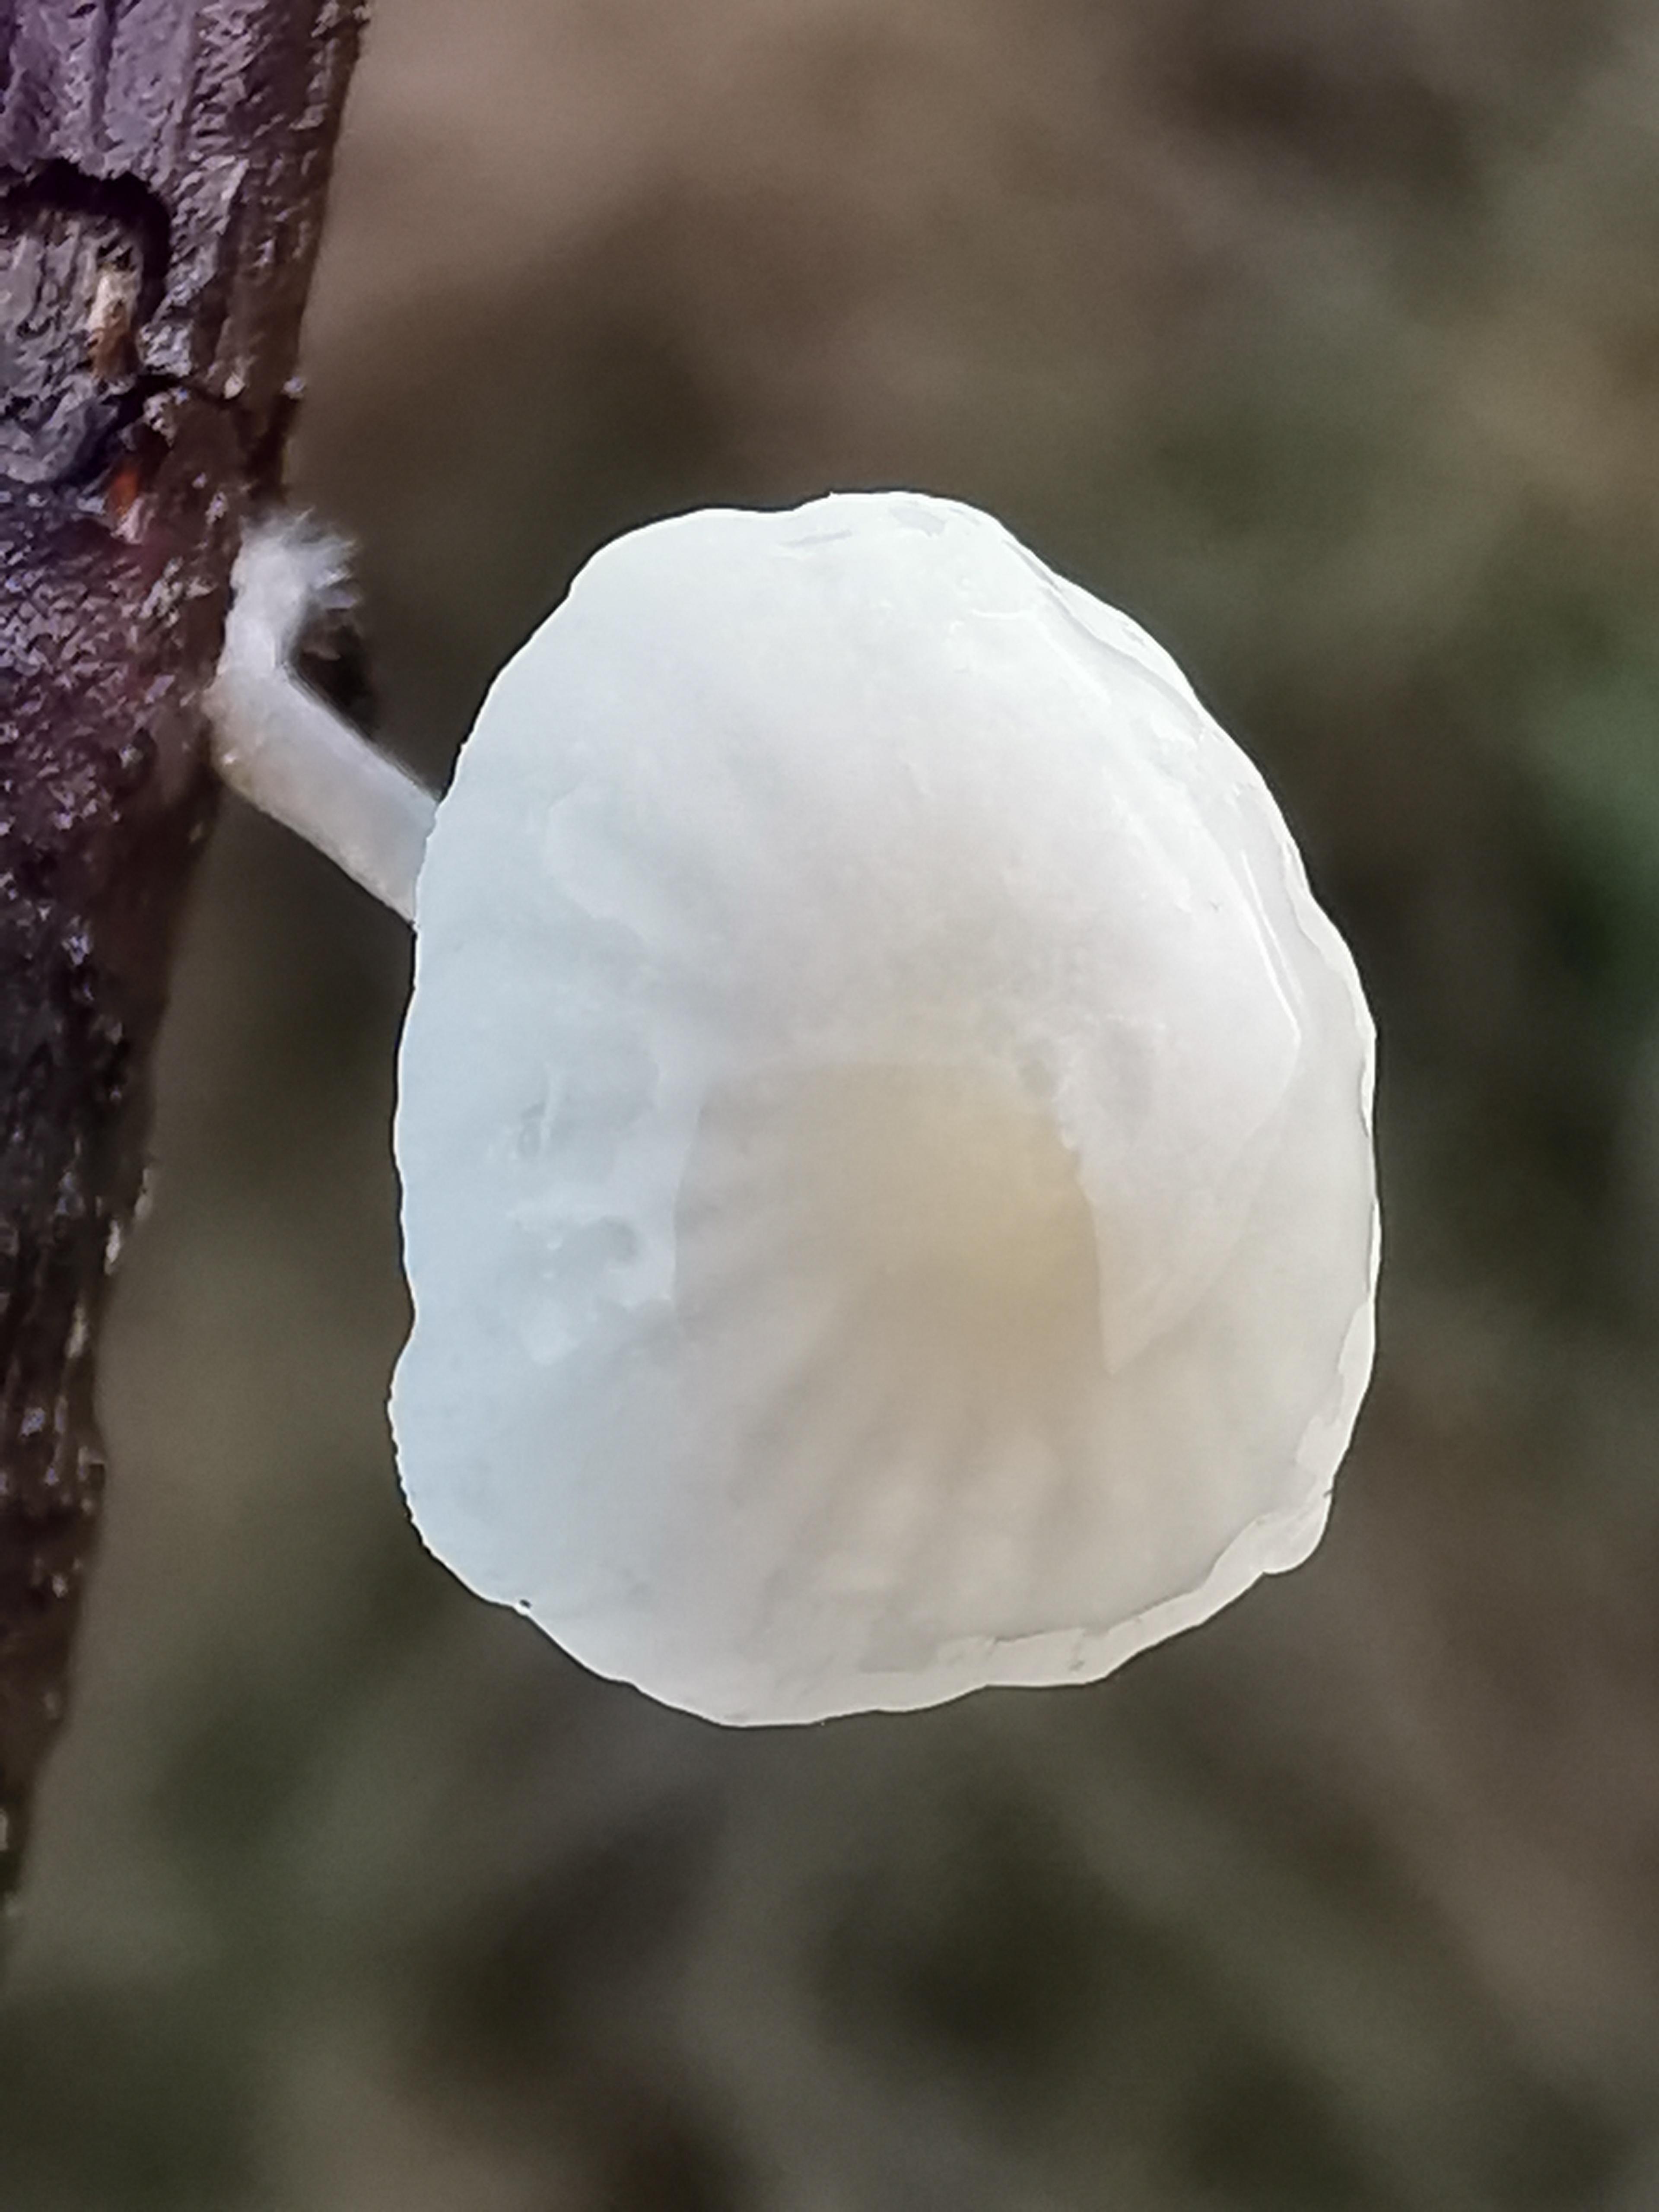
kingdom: Fungi
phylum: Basidiomycota
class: Agaricomycetes
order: Agaricales
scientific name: Agaricales
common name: champignonordenen
